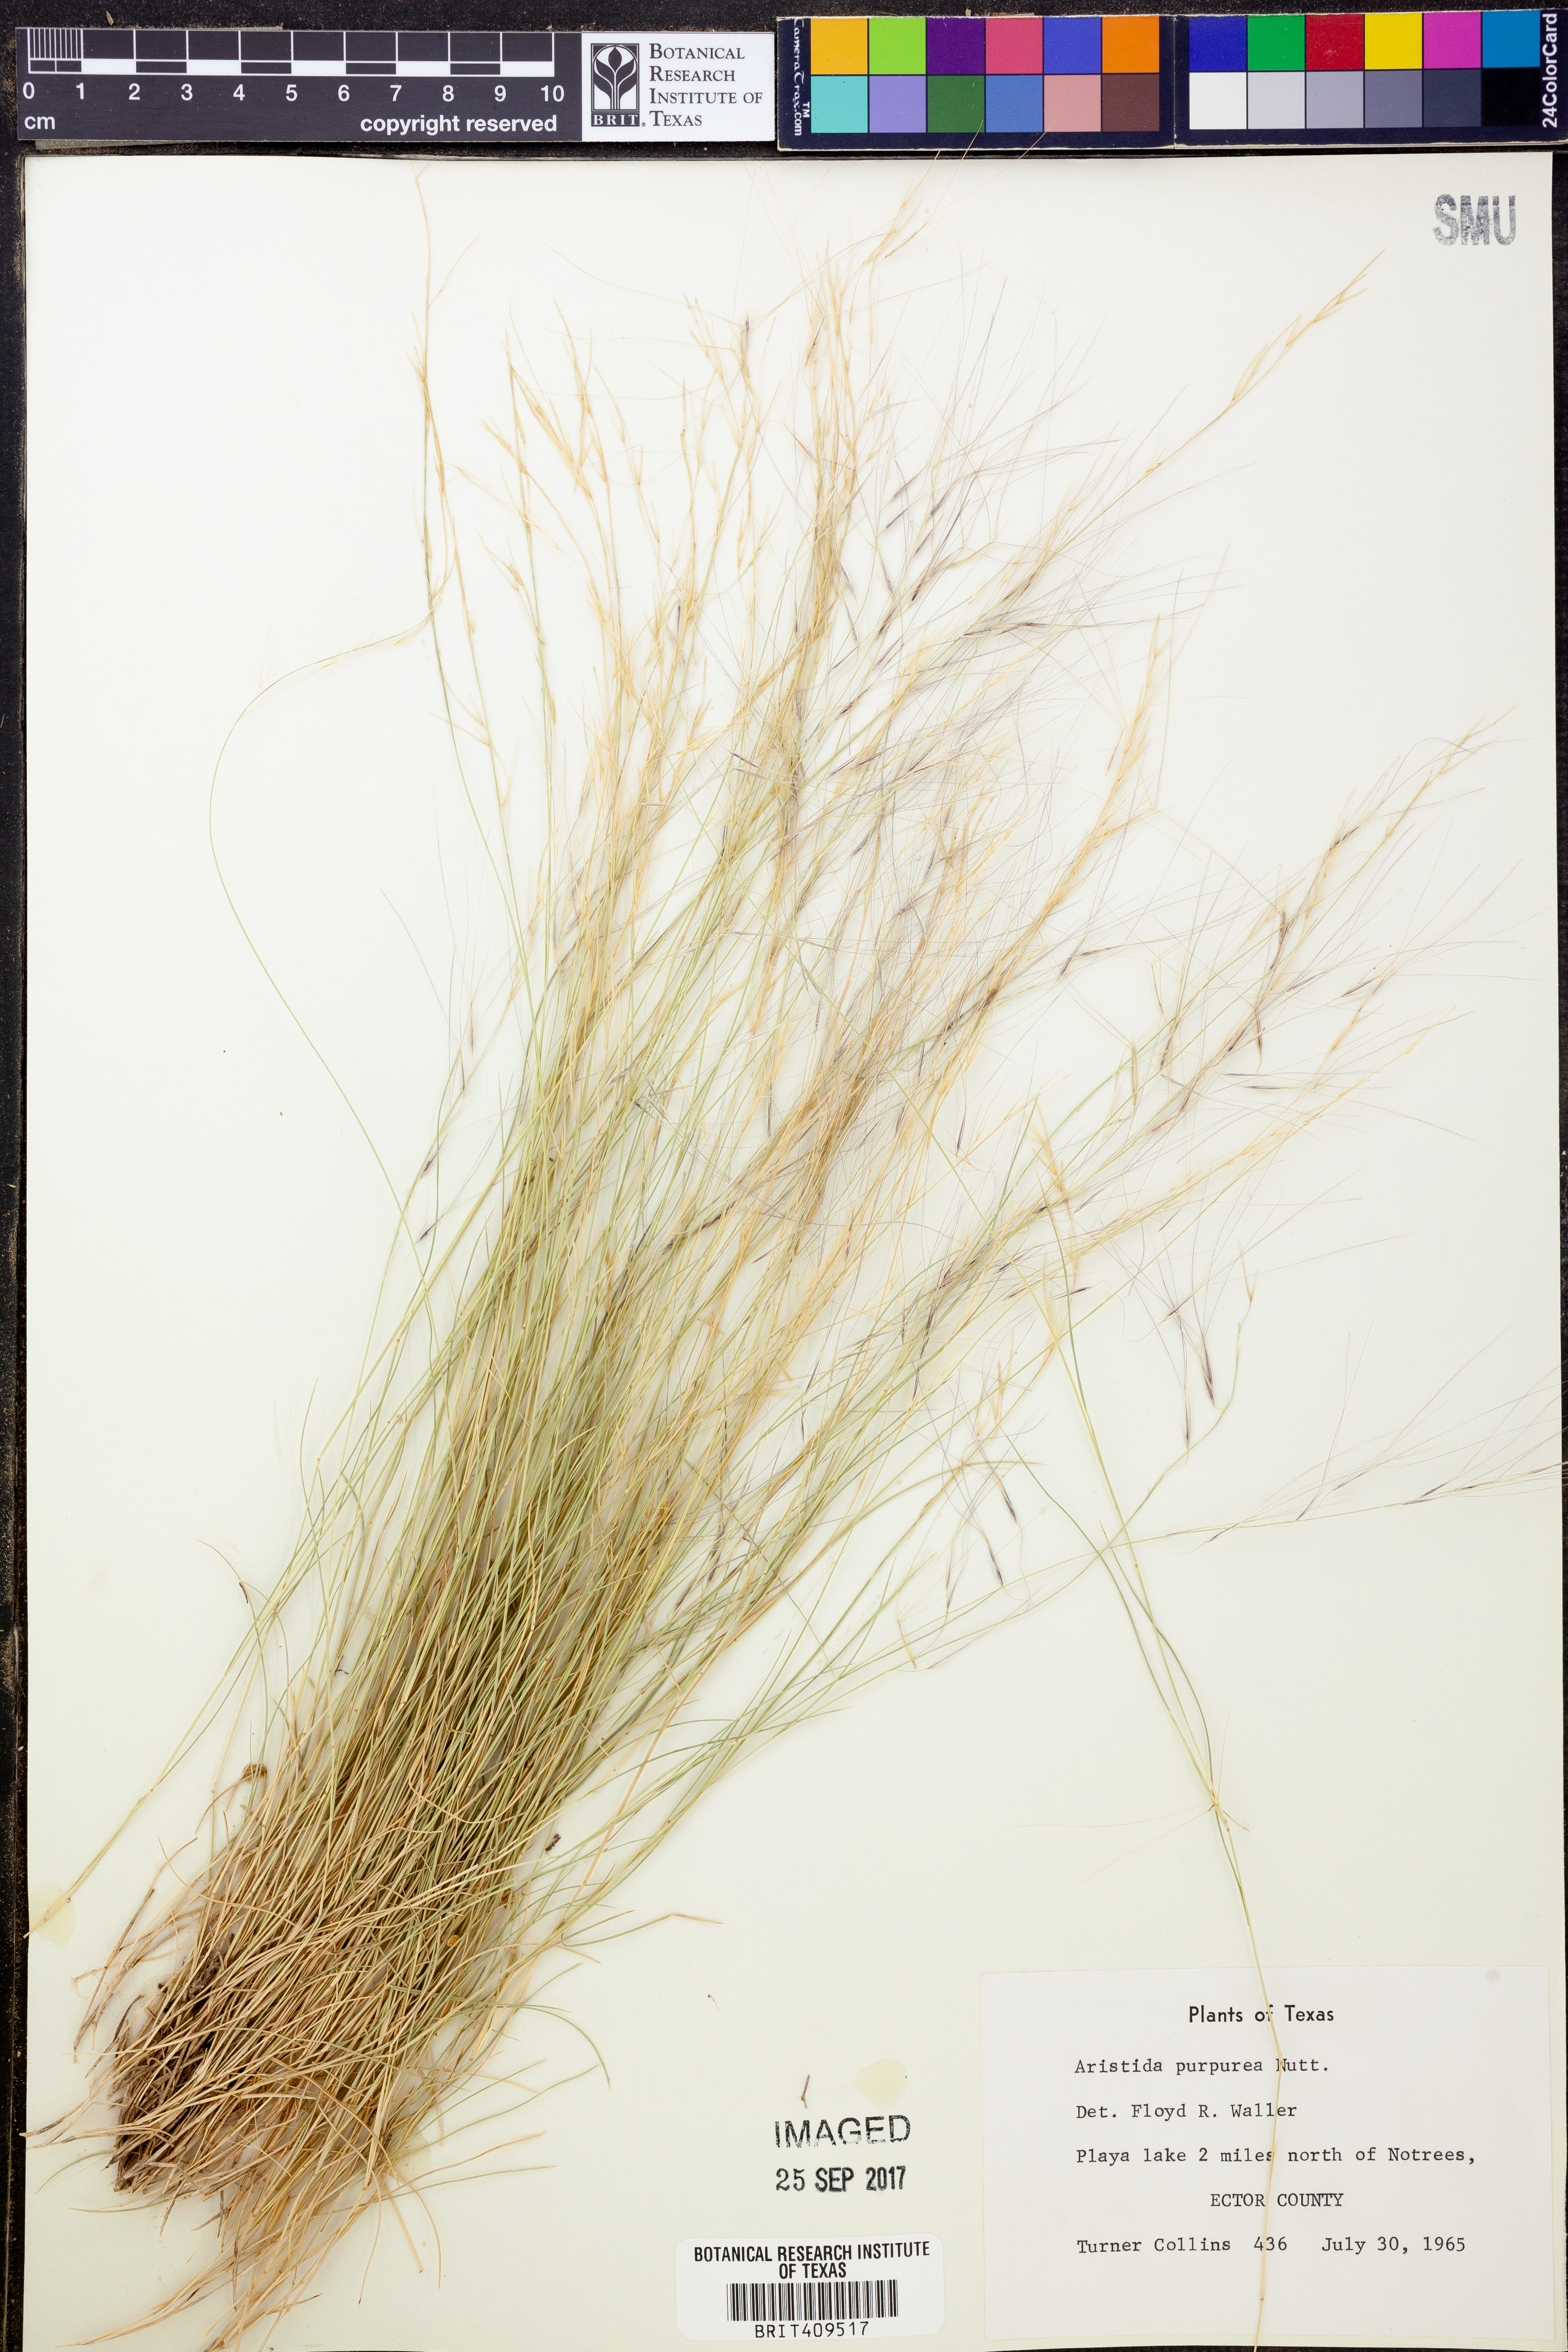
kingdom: Plantae
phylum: Tracheophyta
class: Liliopsida
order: Poales
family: Poaceae
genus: Aristida
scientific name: Aristida purpurea
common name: Purple threeawn
